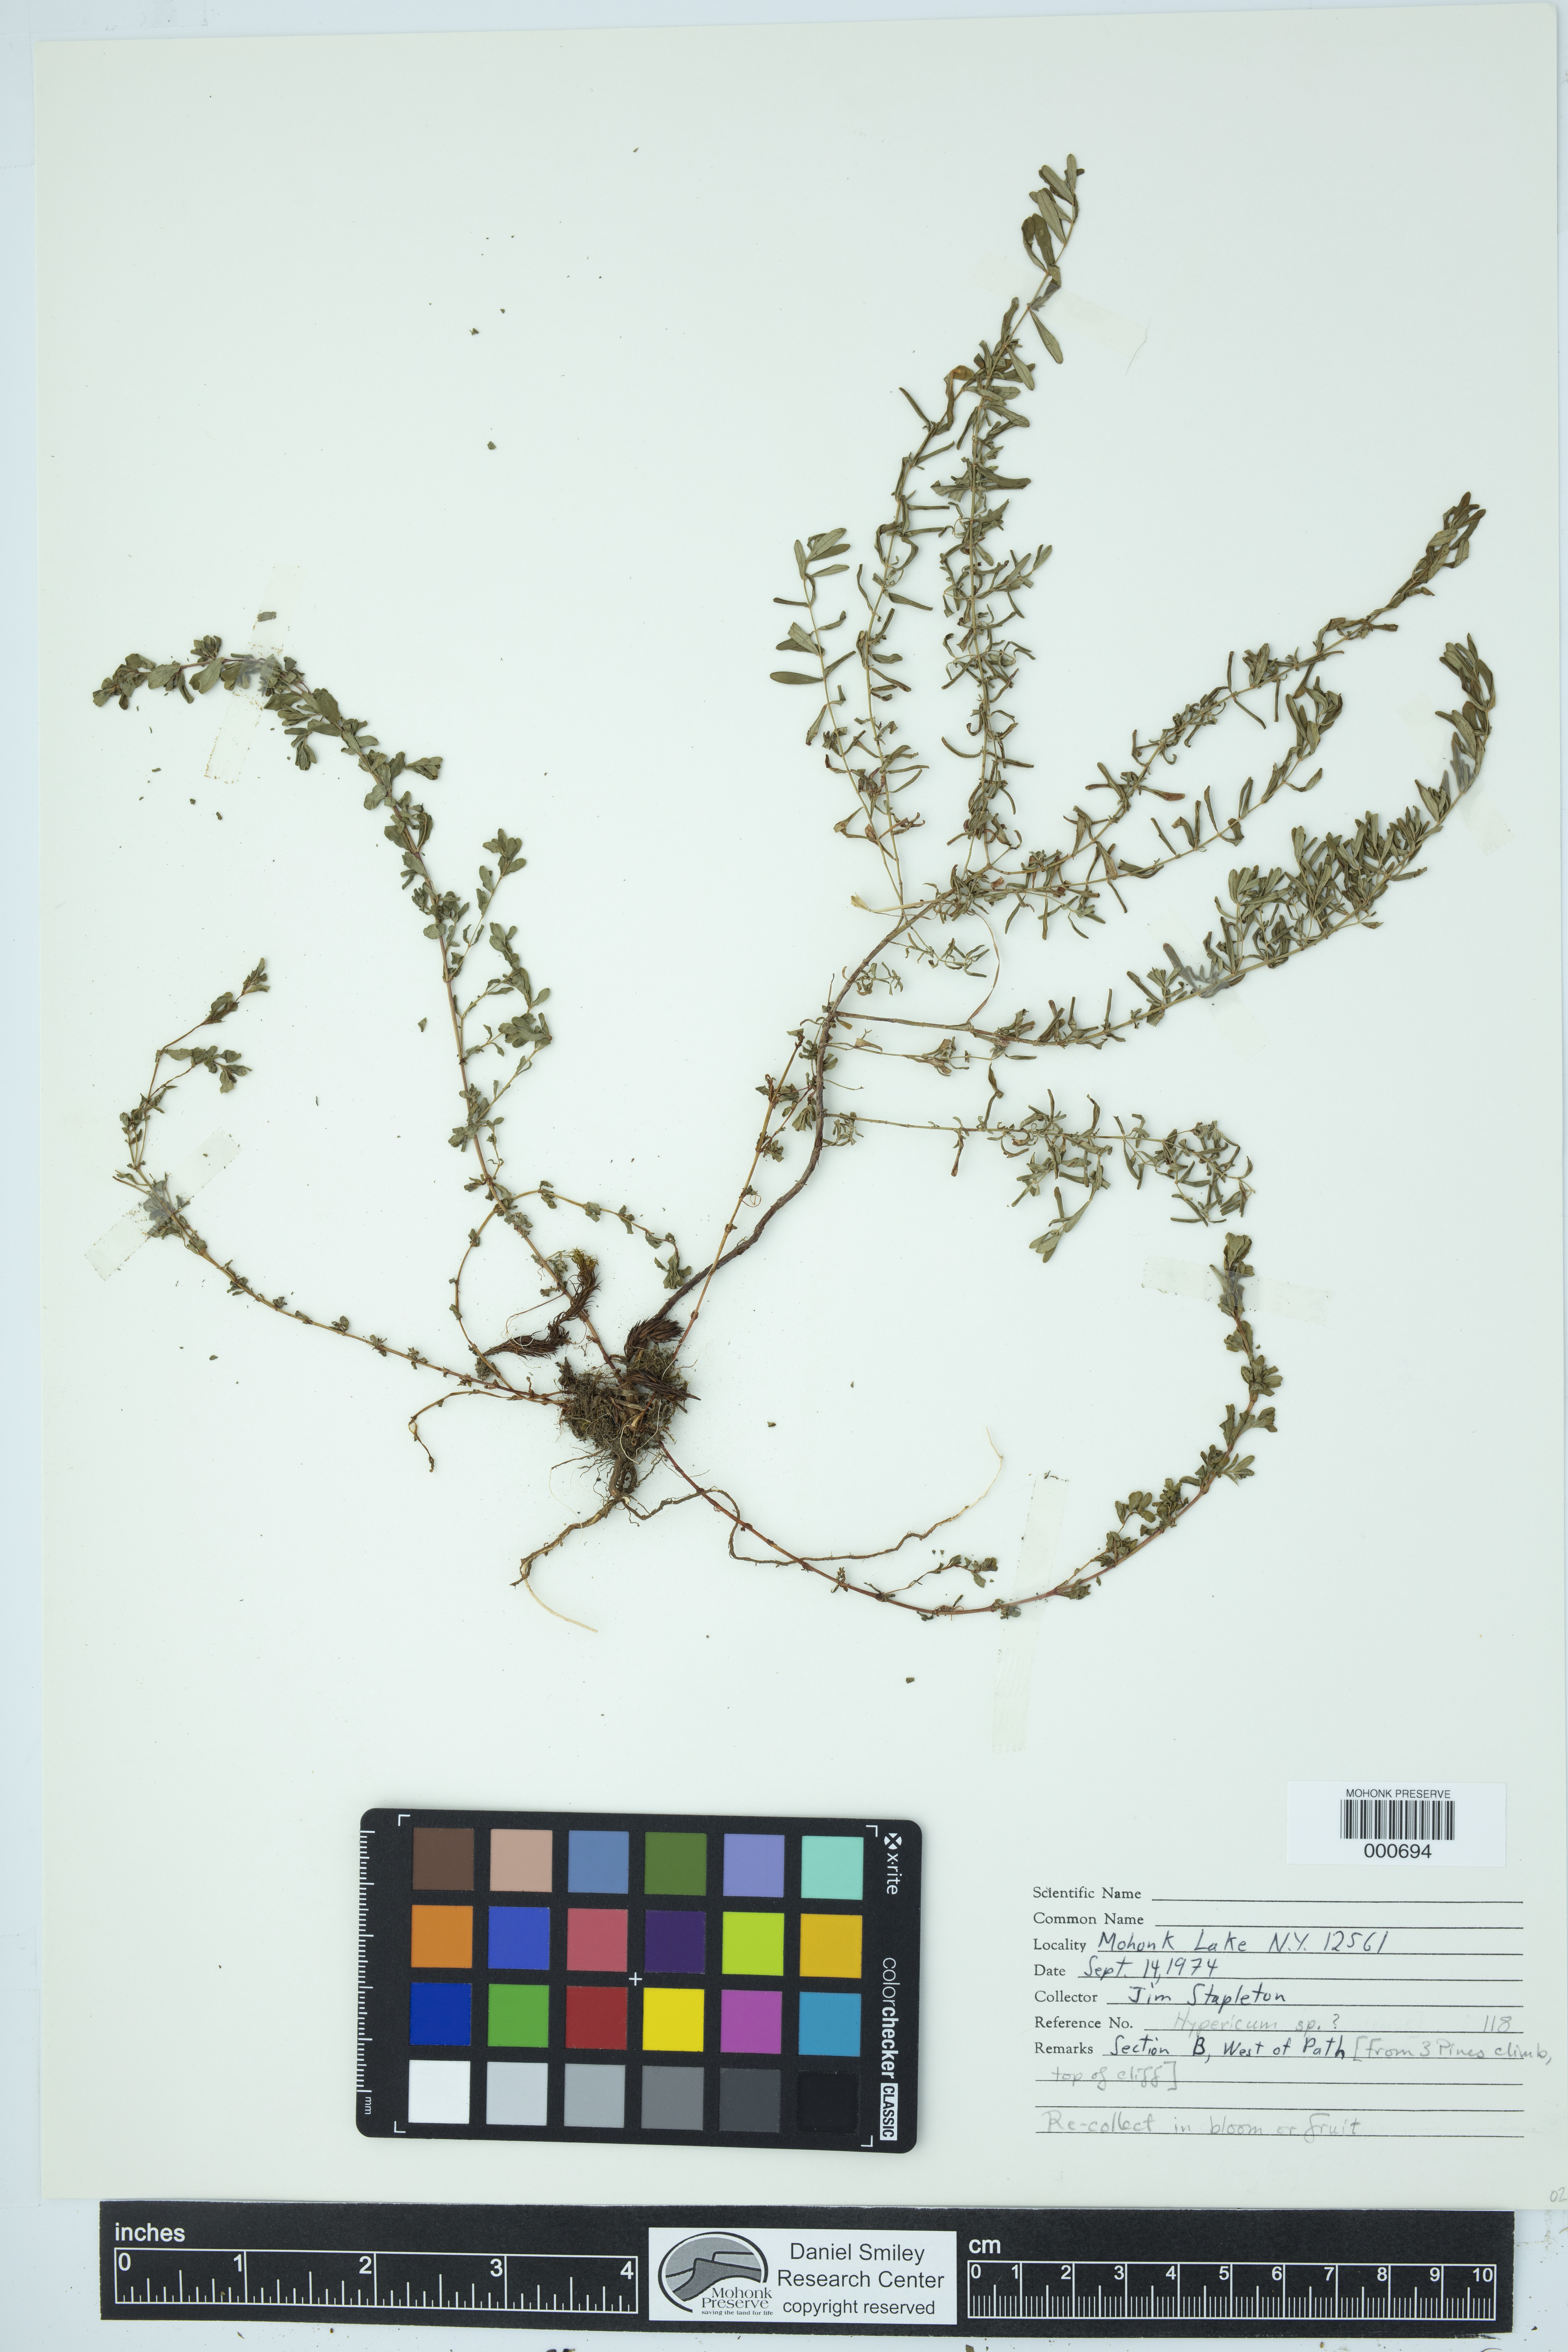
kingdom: Plantae
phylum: Tracheophyta
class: Magnoliopsida
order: Malpighiales
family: Hypericaceae
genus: Hypericum
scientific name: Hypericum
